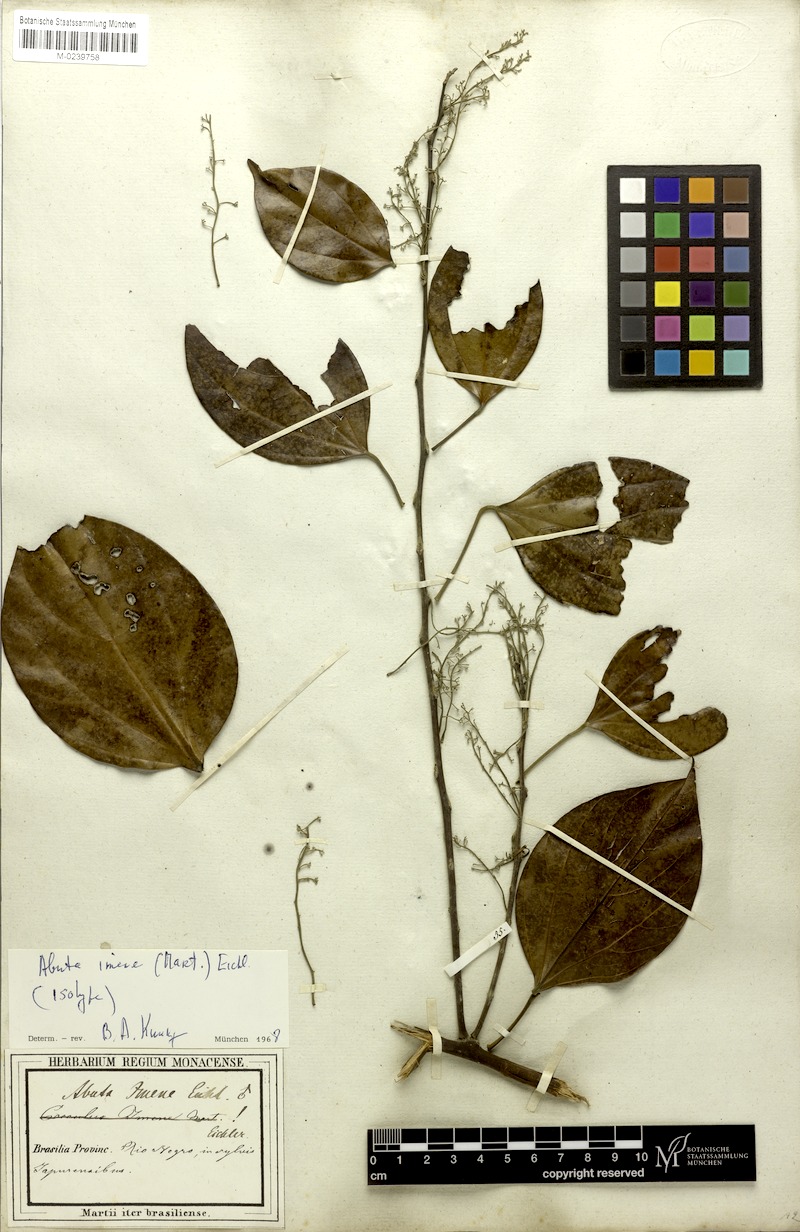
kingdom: Plantae
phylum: Tracheophyta
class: Magnoliopsida
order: Ranunculales
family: Menispermaceae
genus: Abuta
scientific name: Abuta imene
